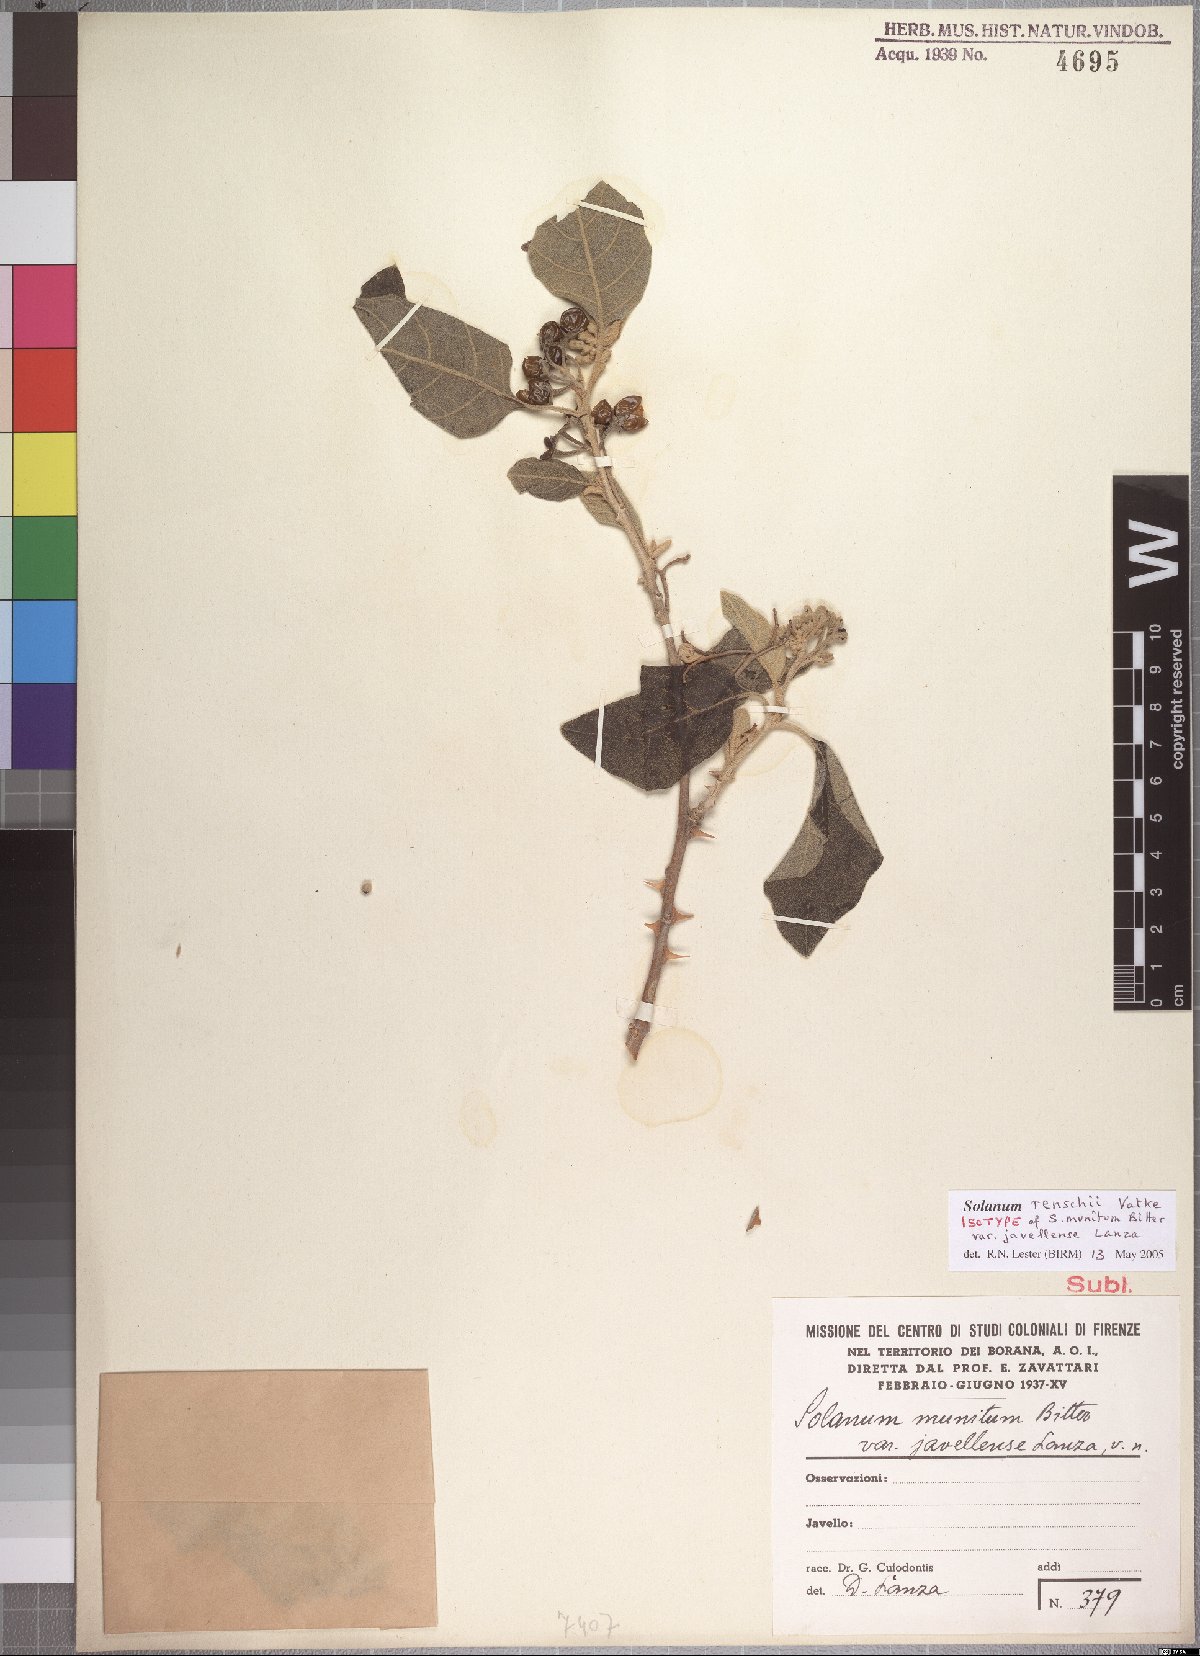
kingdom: Plantae
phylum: Tracheophyta
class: Magnoliopsida
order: Solanales
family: Solanaceae
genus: Solanum
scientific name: Solanum tettense
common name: Mozambique bitter apple
